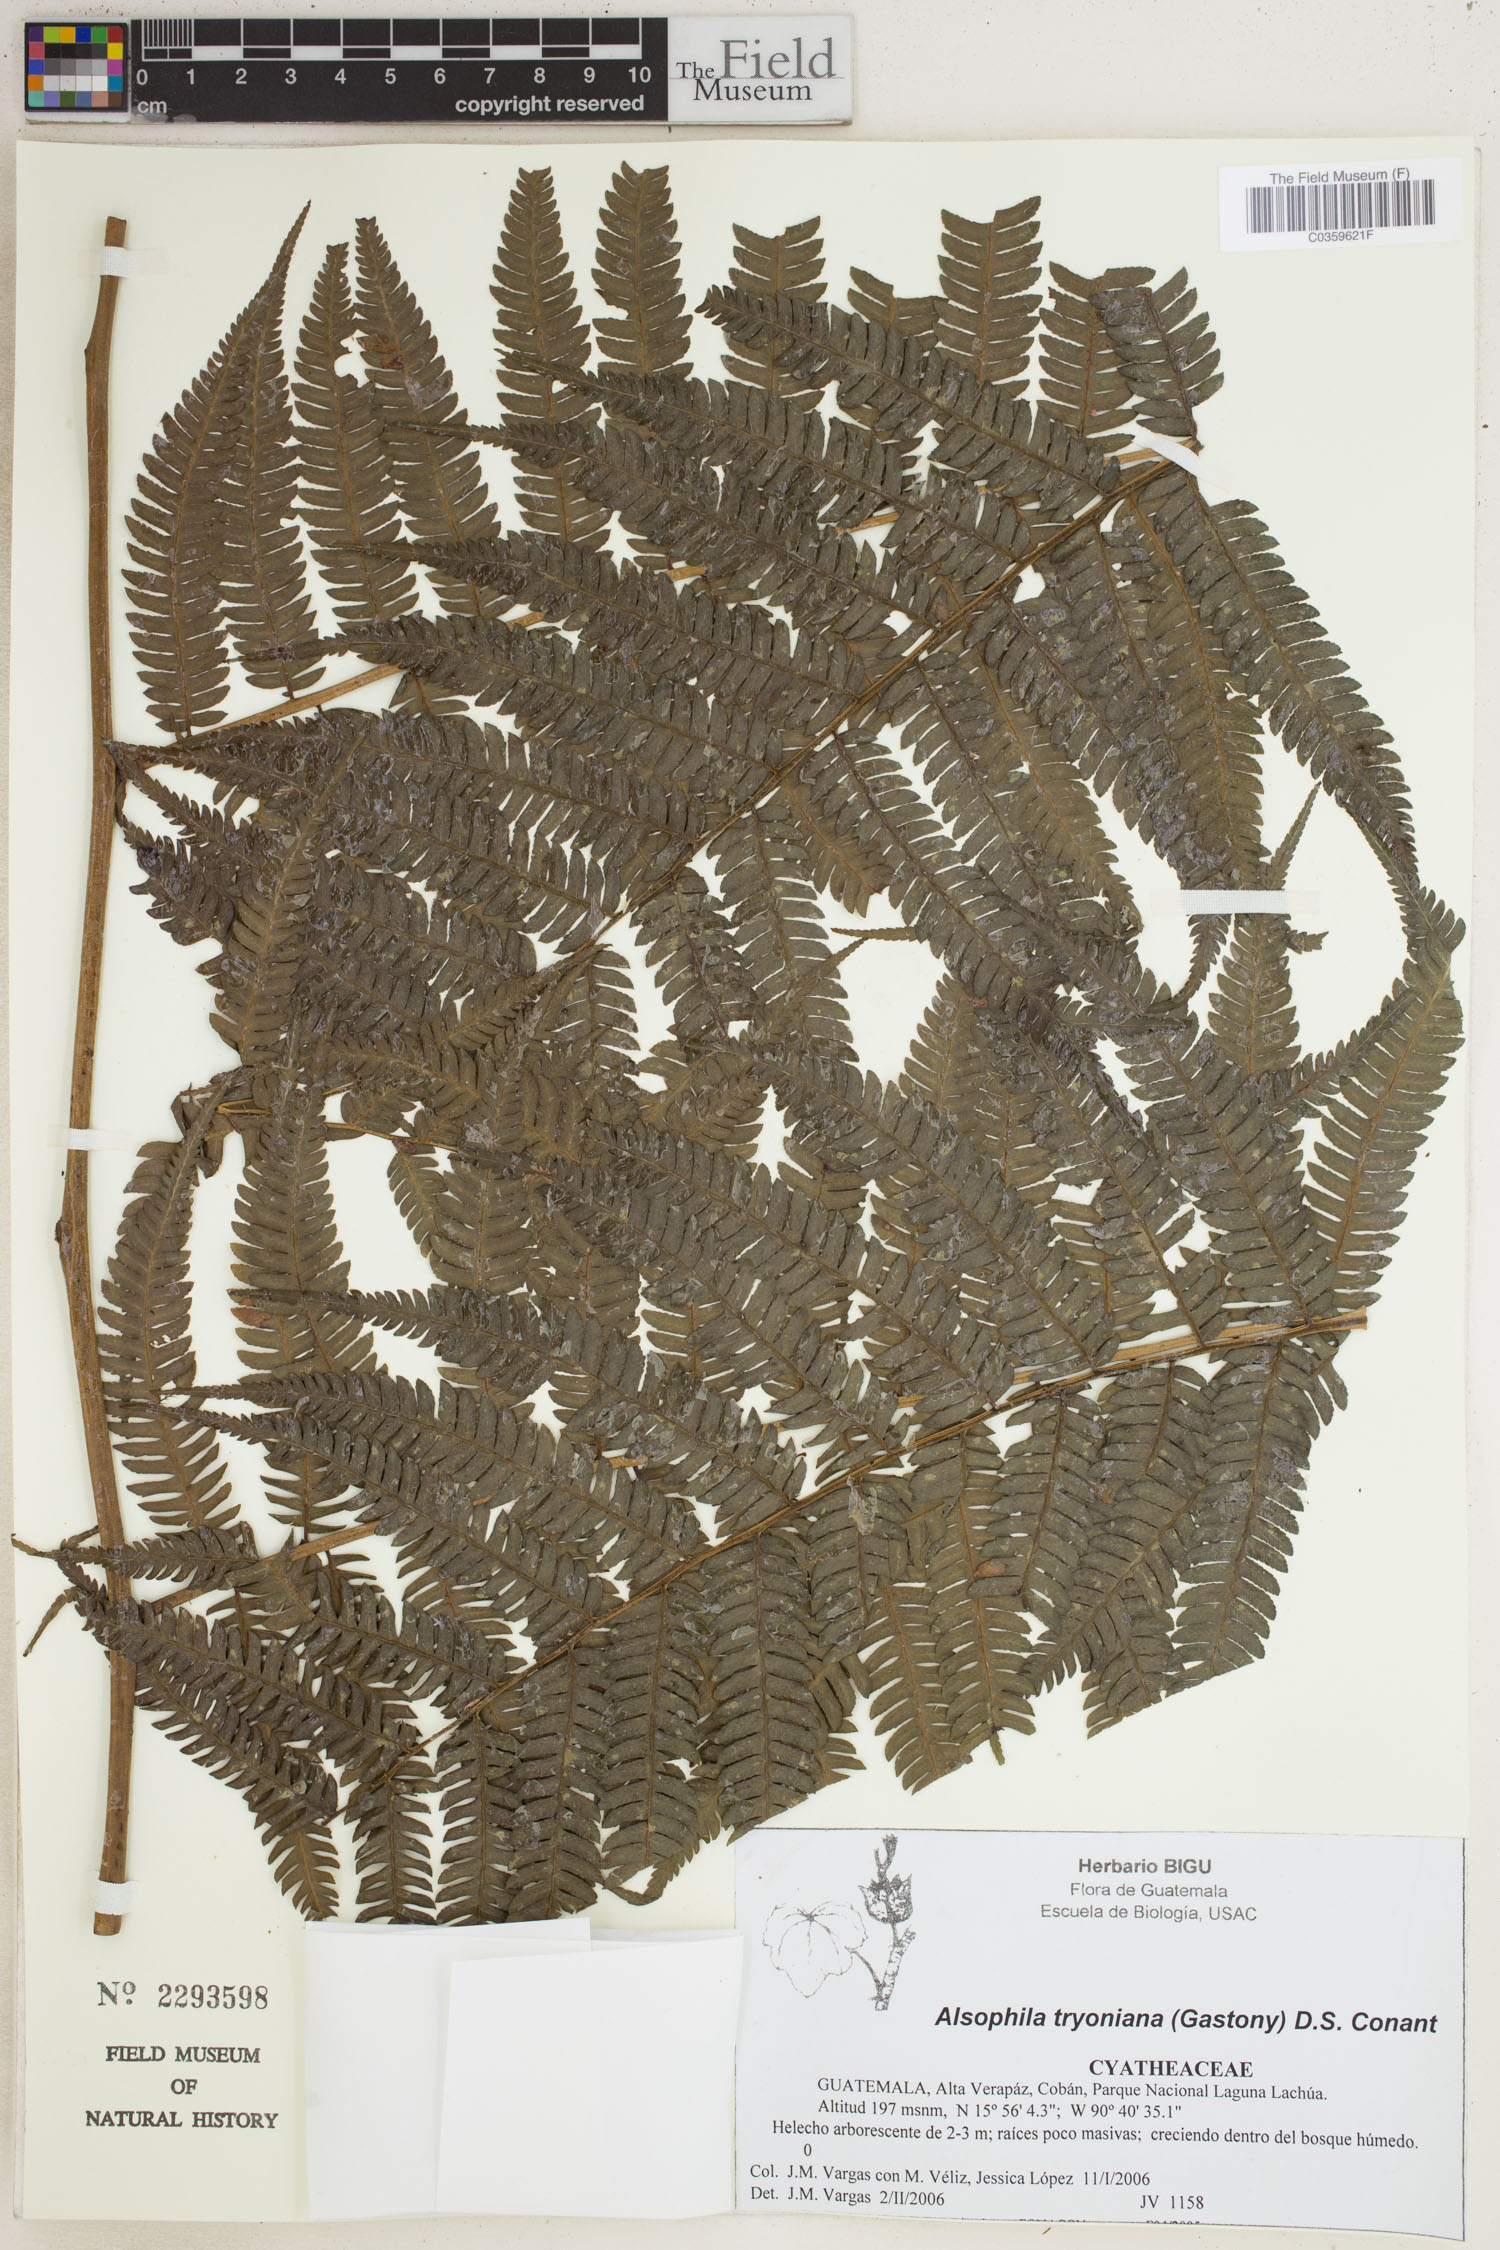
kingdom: Plantae
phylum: Tracheophyta
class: Polypodiopsida
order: Cyatheales
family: Cyatheaceae
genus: Alsophila
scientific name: Alsophila tryoniana
